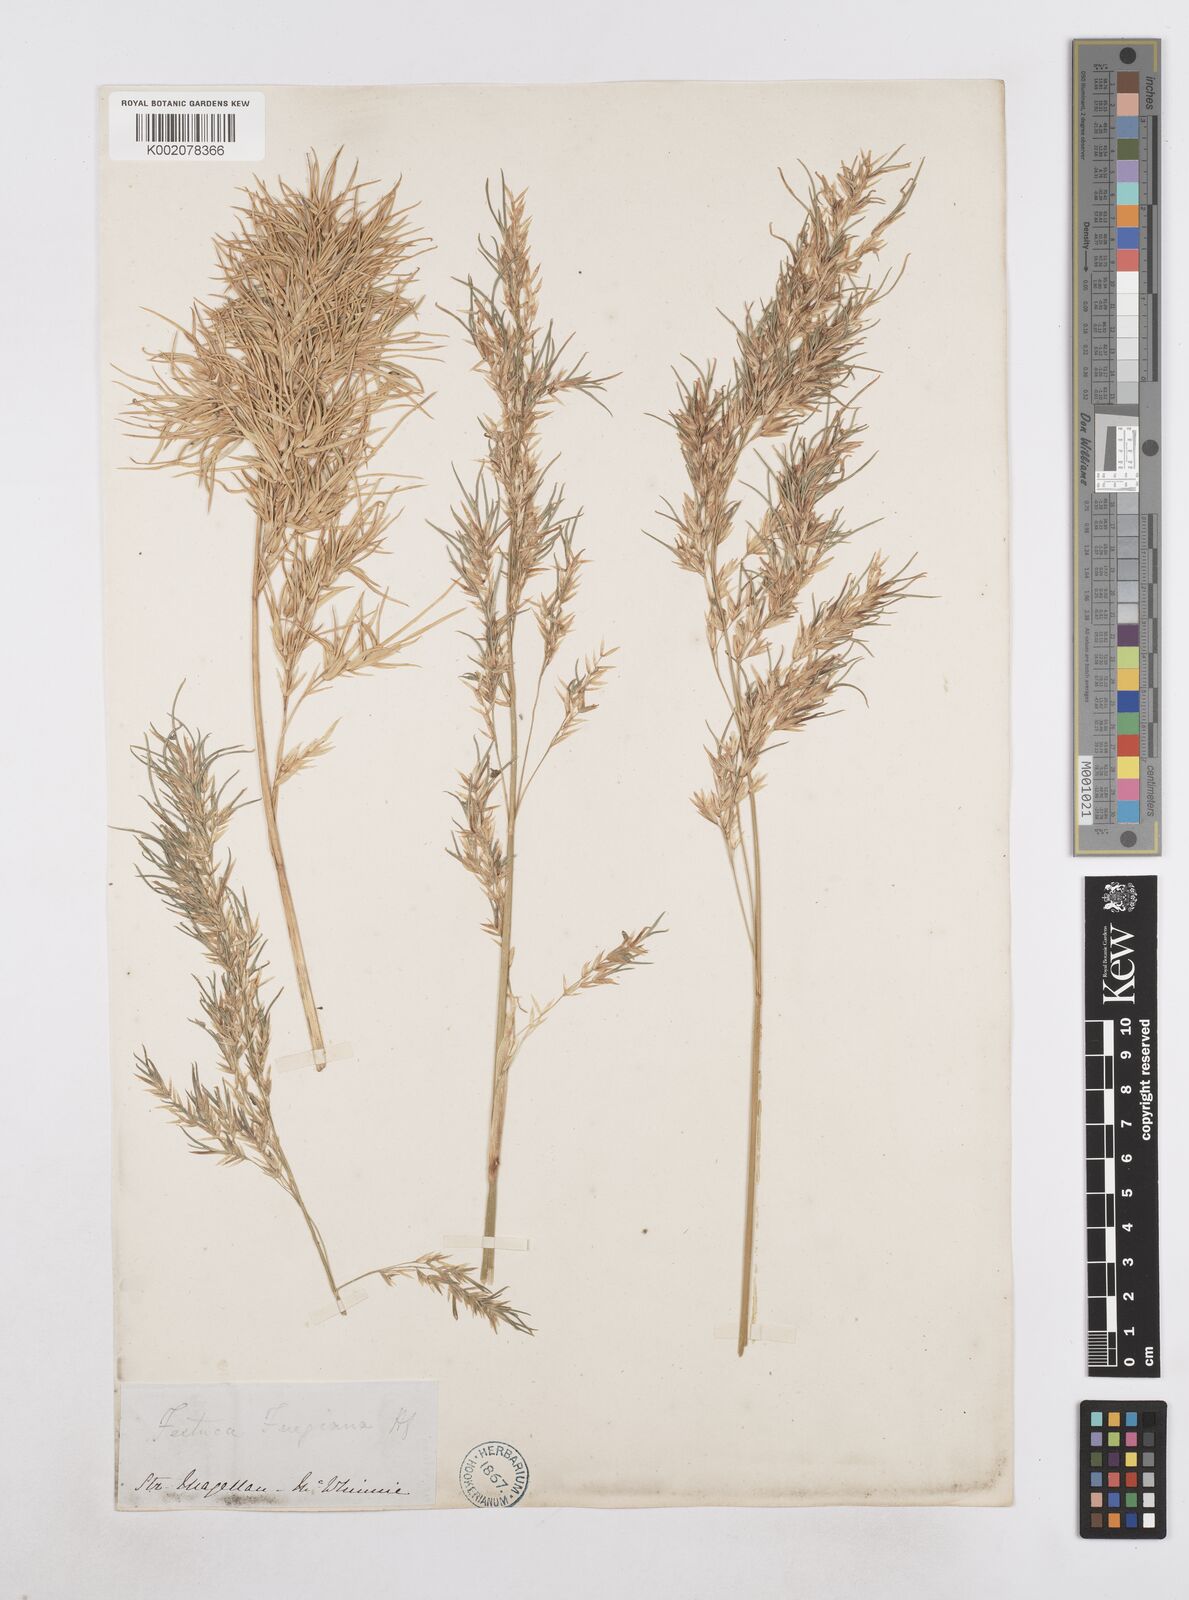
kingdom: Plantae
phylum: Tracheophyta
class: Liliopsida
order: Poales
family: Poaceae
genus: Poa
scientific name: Poa alopecurus
